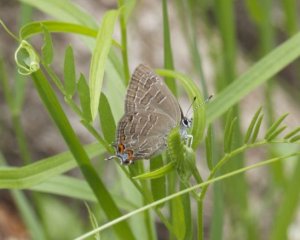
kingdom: Animalia
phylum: Arthropoda
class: Insecta
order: Lepidoptera
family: Lycaenidae
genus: Satyrium
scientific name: Satyrium liparops
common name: Striped Hairstreak
